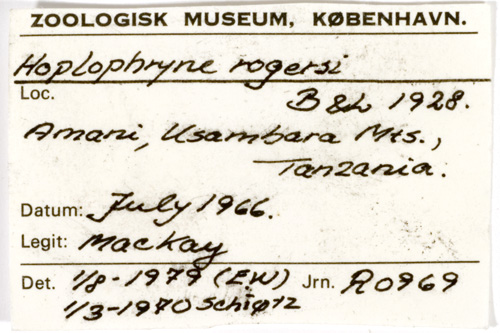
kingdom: Animalia
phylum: Chordata
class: Amphibia
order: Anura
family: Microhylidae
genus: Hoplophryne
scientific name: Hoplophryne rogersi
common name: Tanzania banana frog
